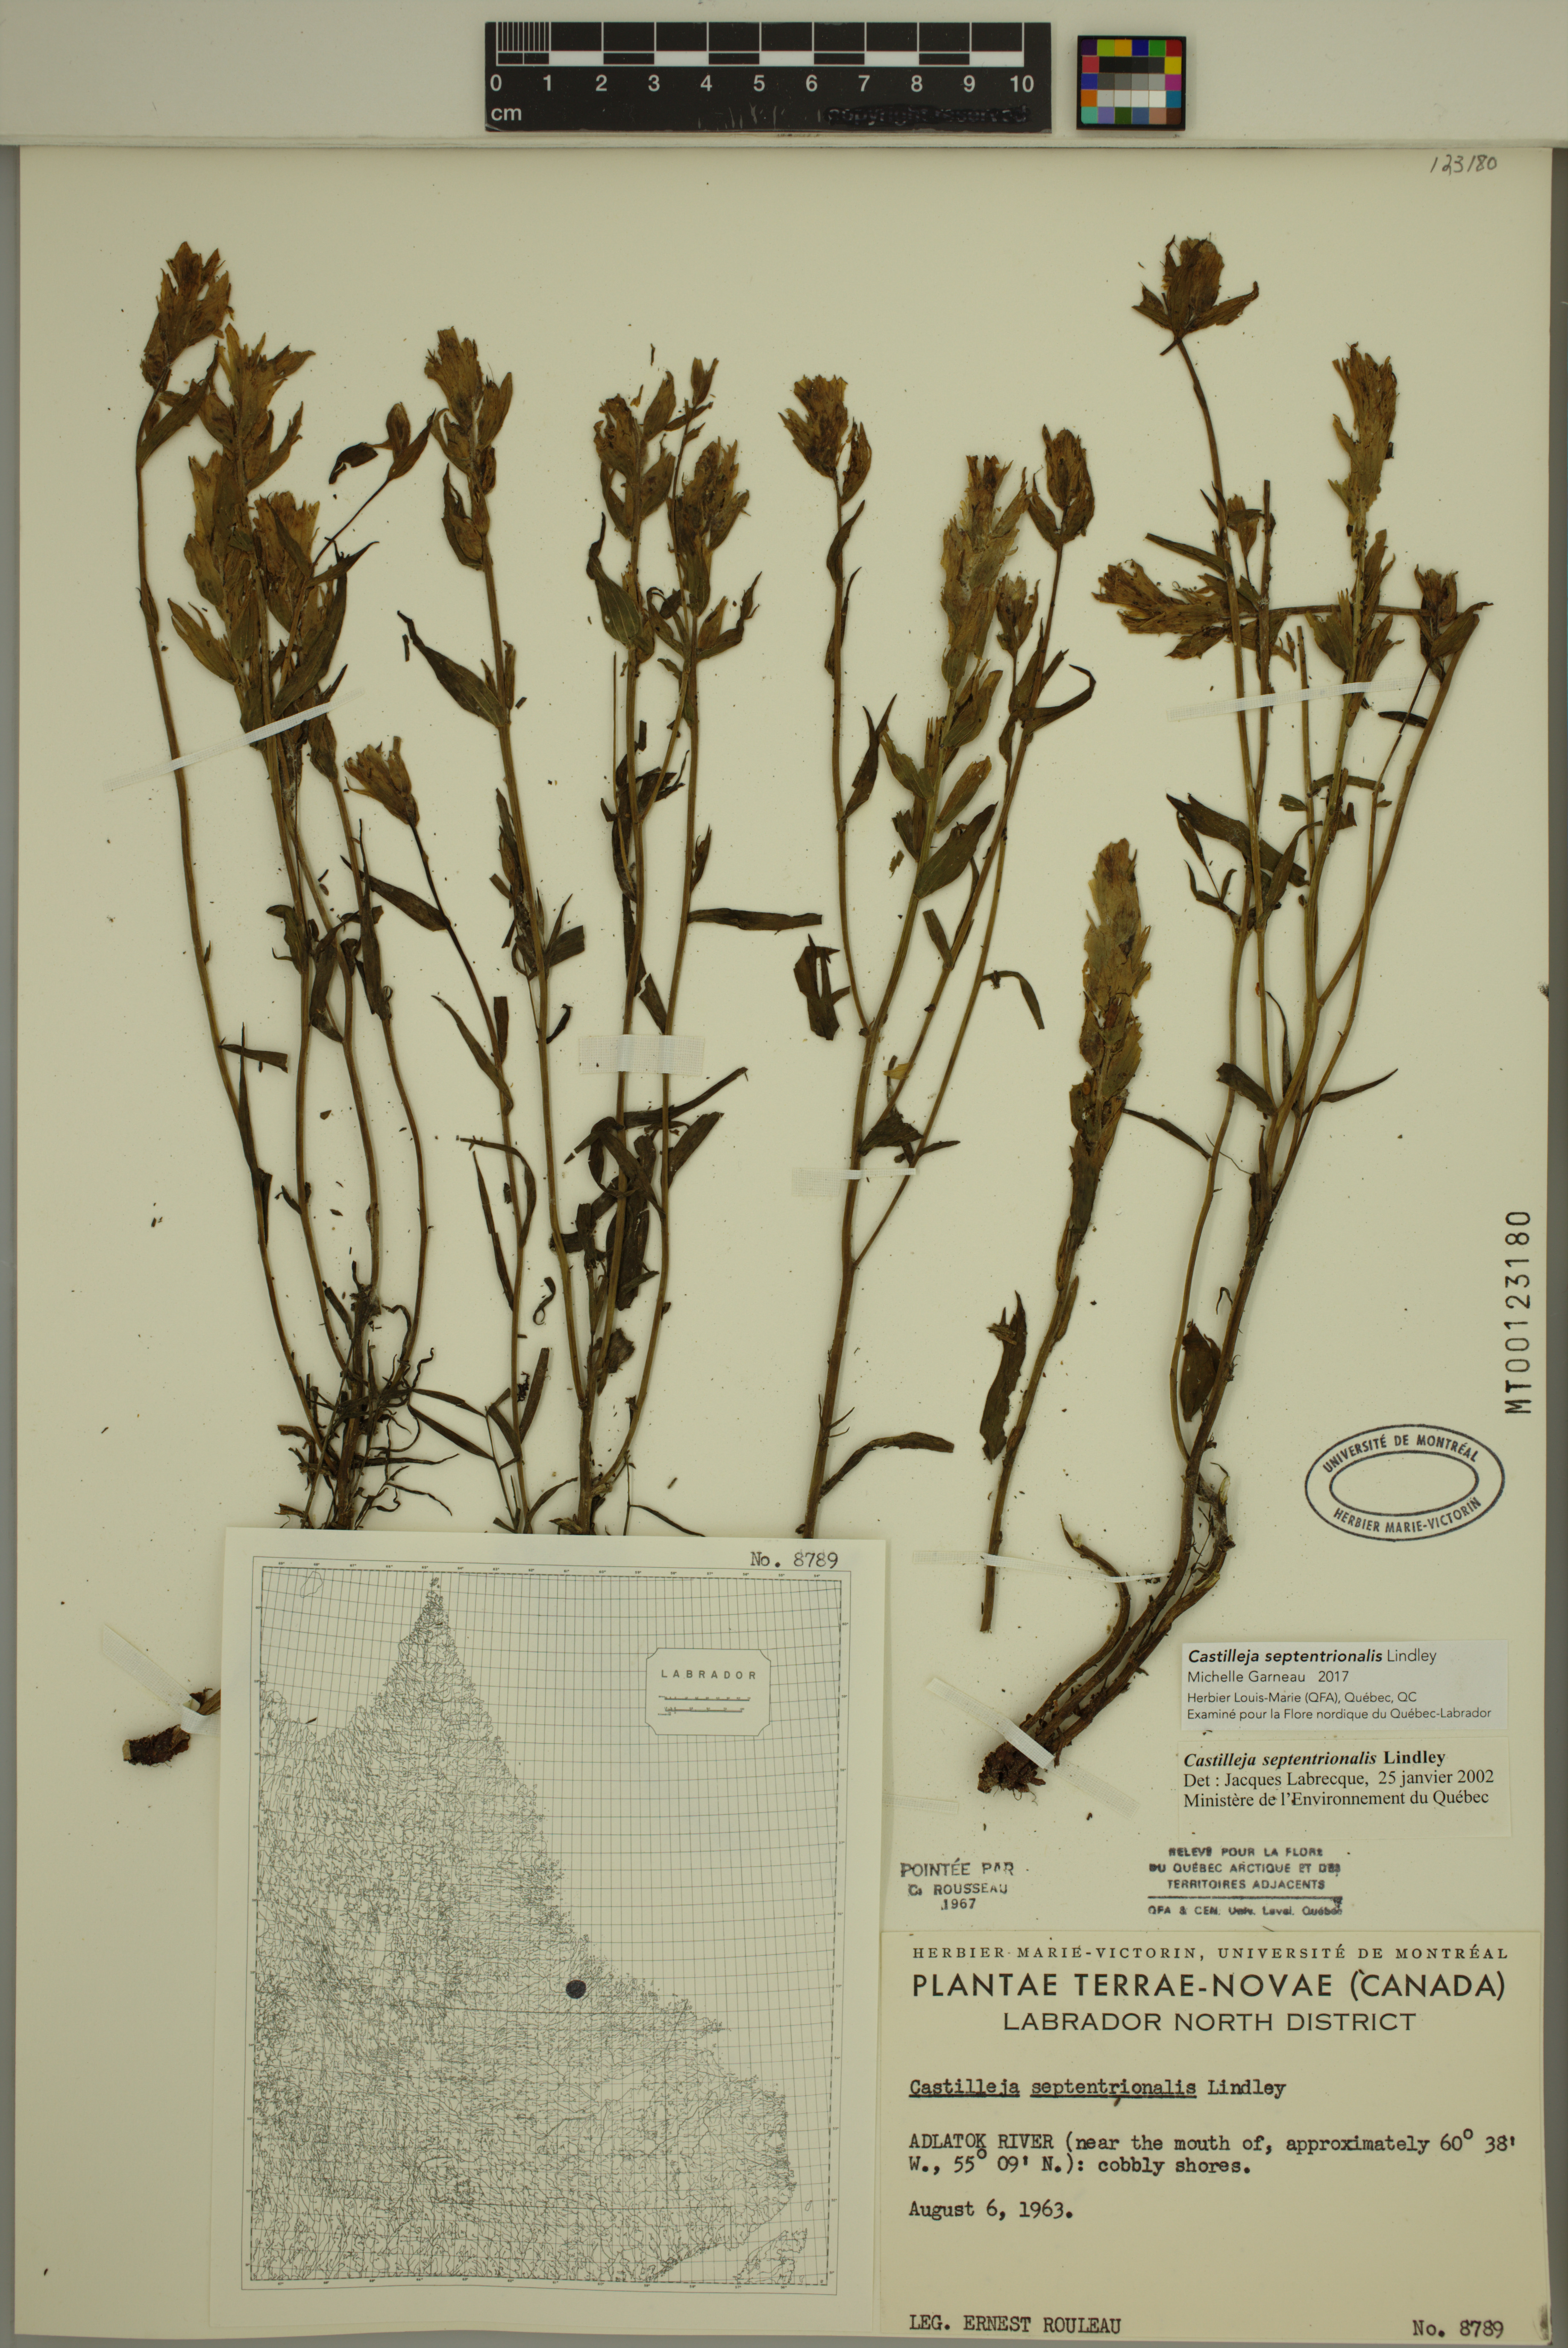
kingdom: Plantae
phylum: Tracheophyta
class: Magnoliopsida
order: Lamiales
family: Orobanchaceae
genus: Castilleja
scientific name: Castilleja septentrionalis
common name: Northeastern paintbrush
